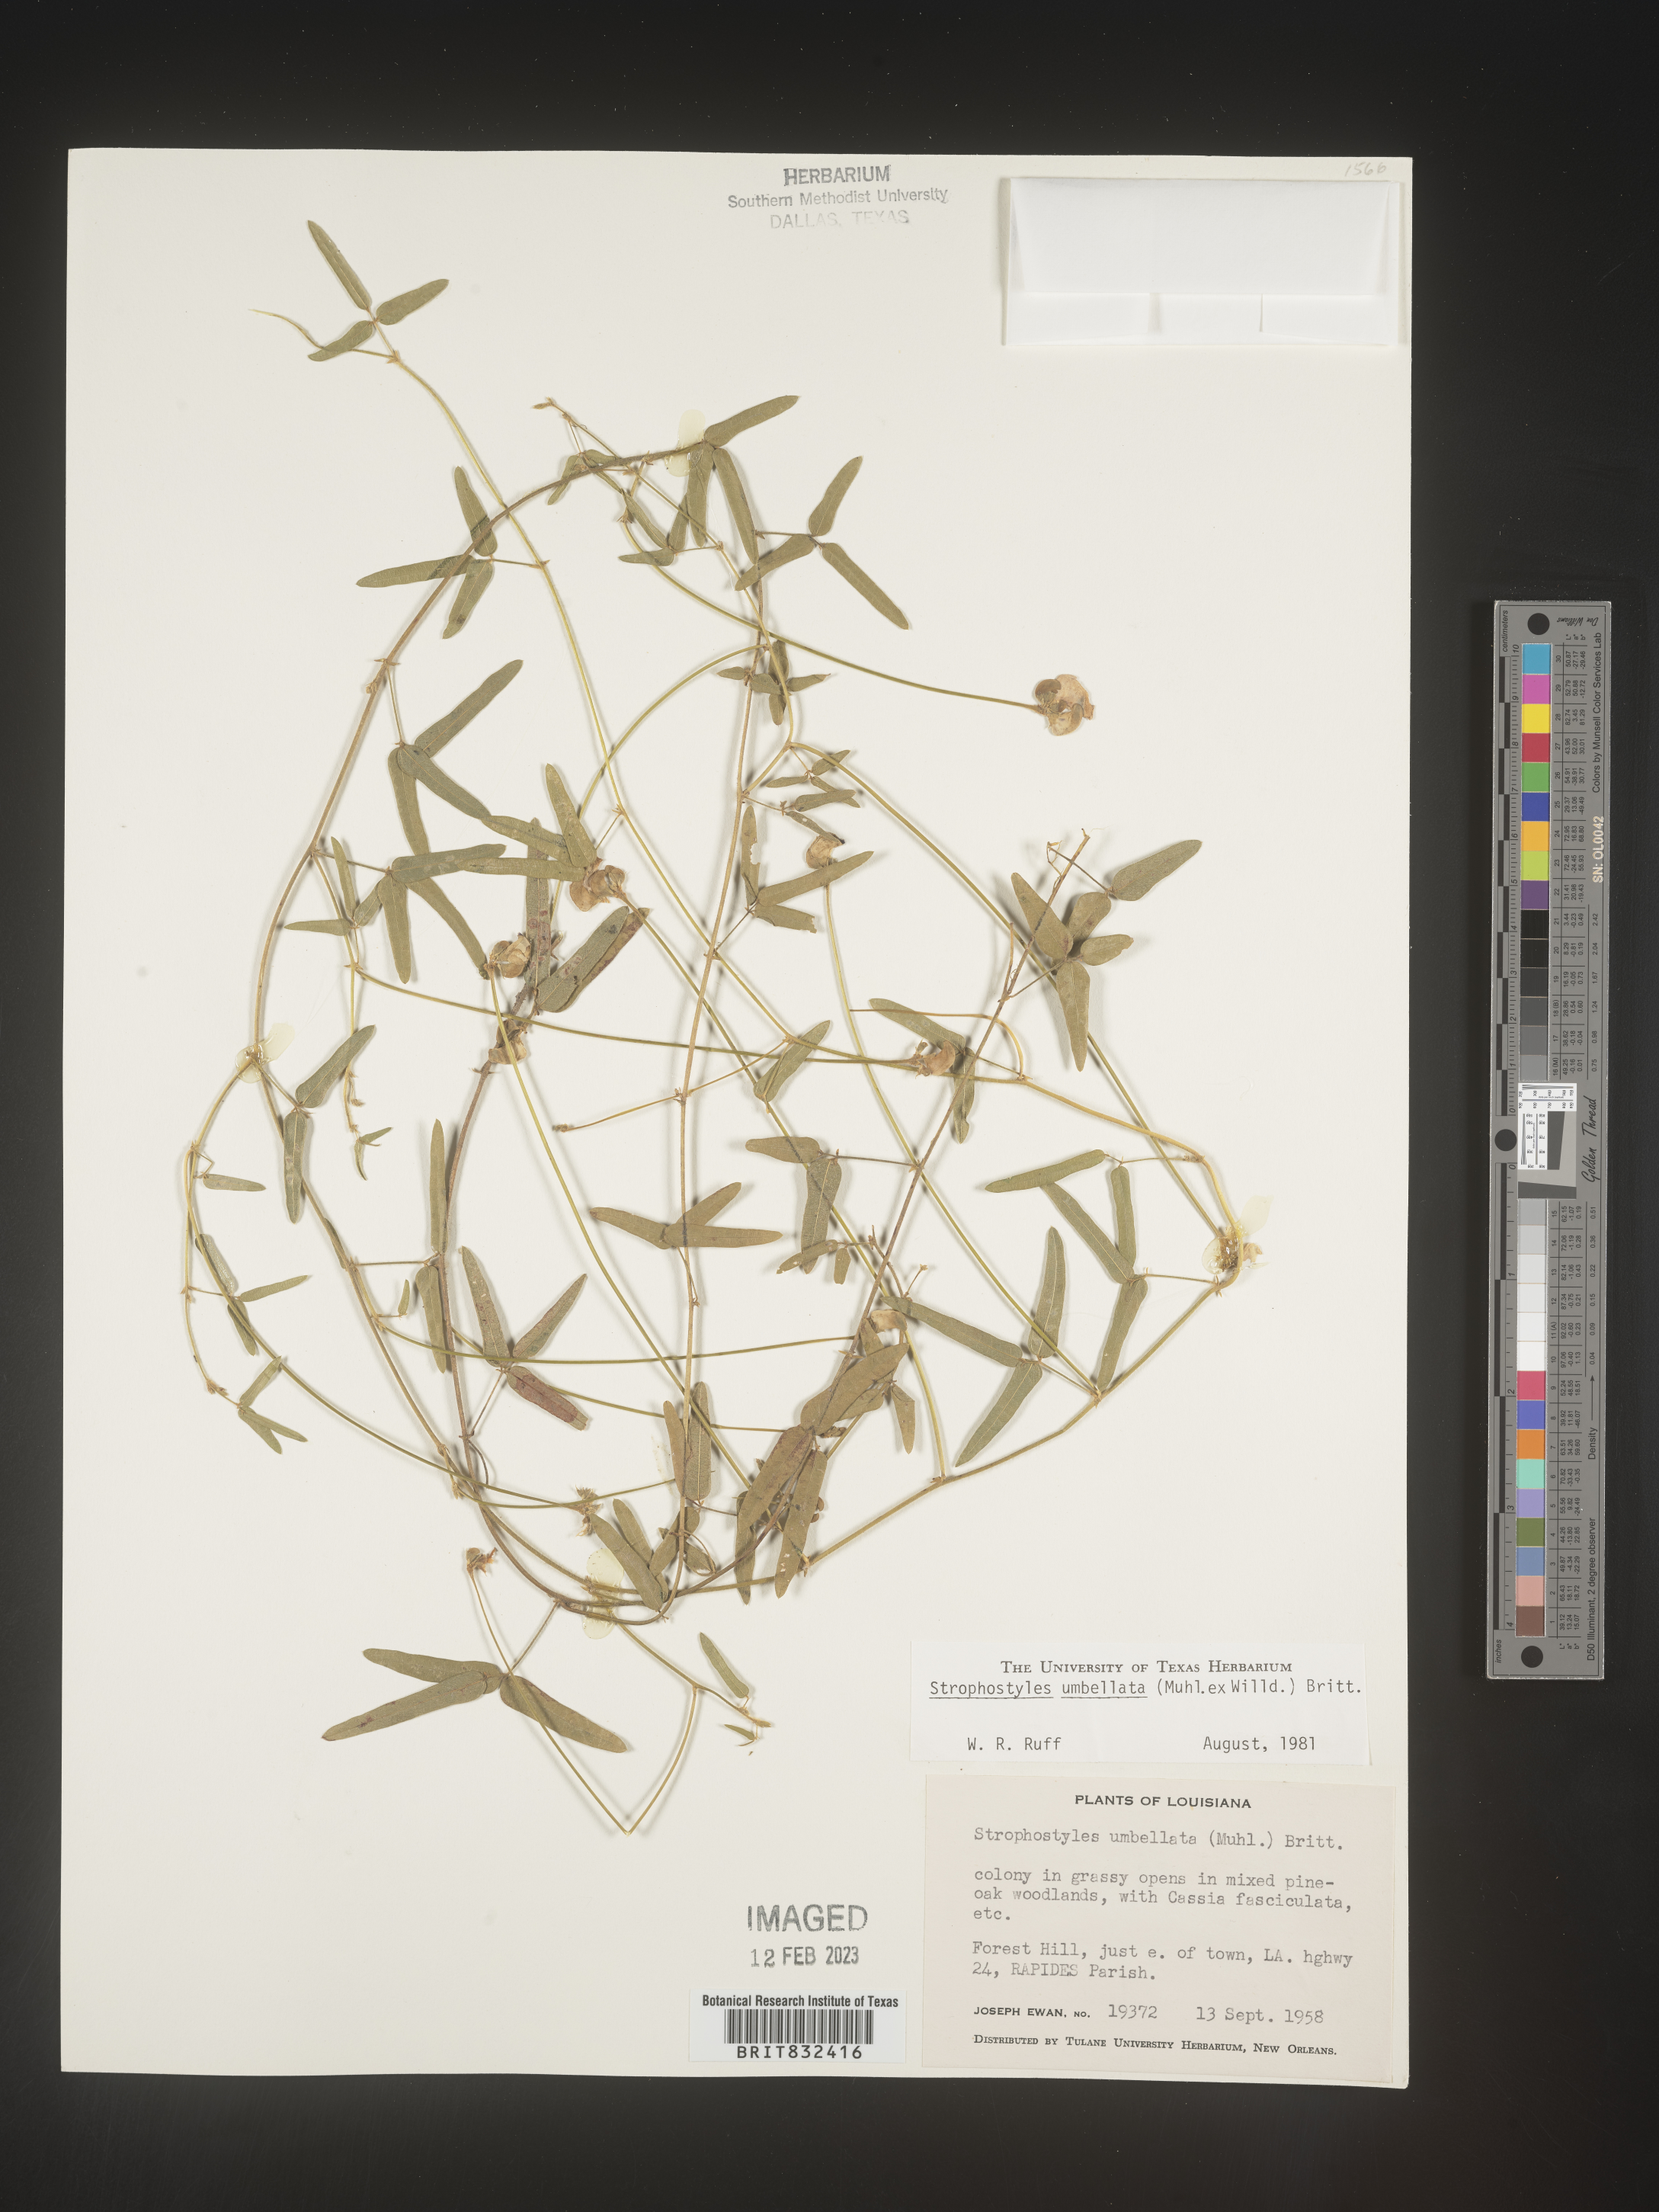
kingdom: Plantae
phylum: Tracheophyta
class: Magnoliopsida
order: Fabales
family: Fabaceae
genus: Strophostyles
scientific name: Strophostyles umbellata
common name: Perennial wild bean
